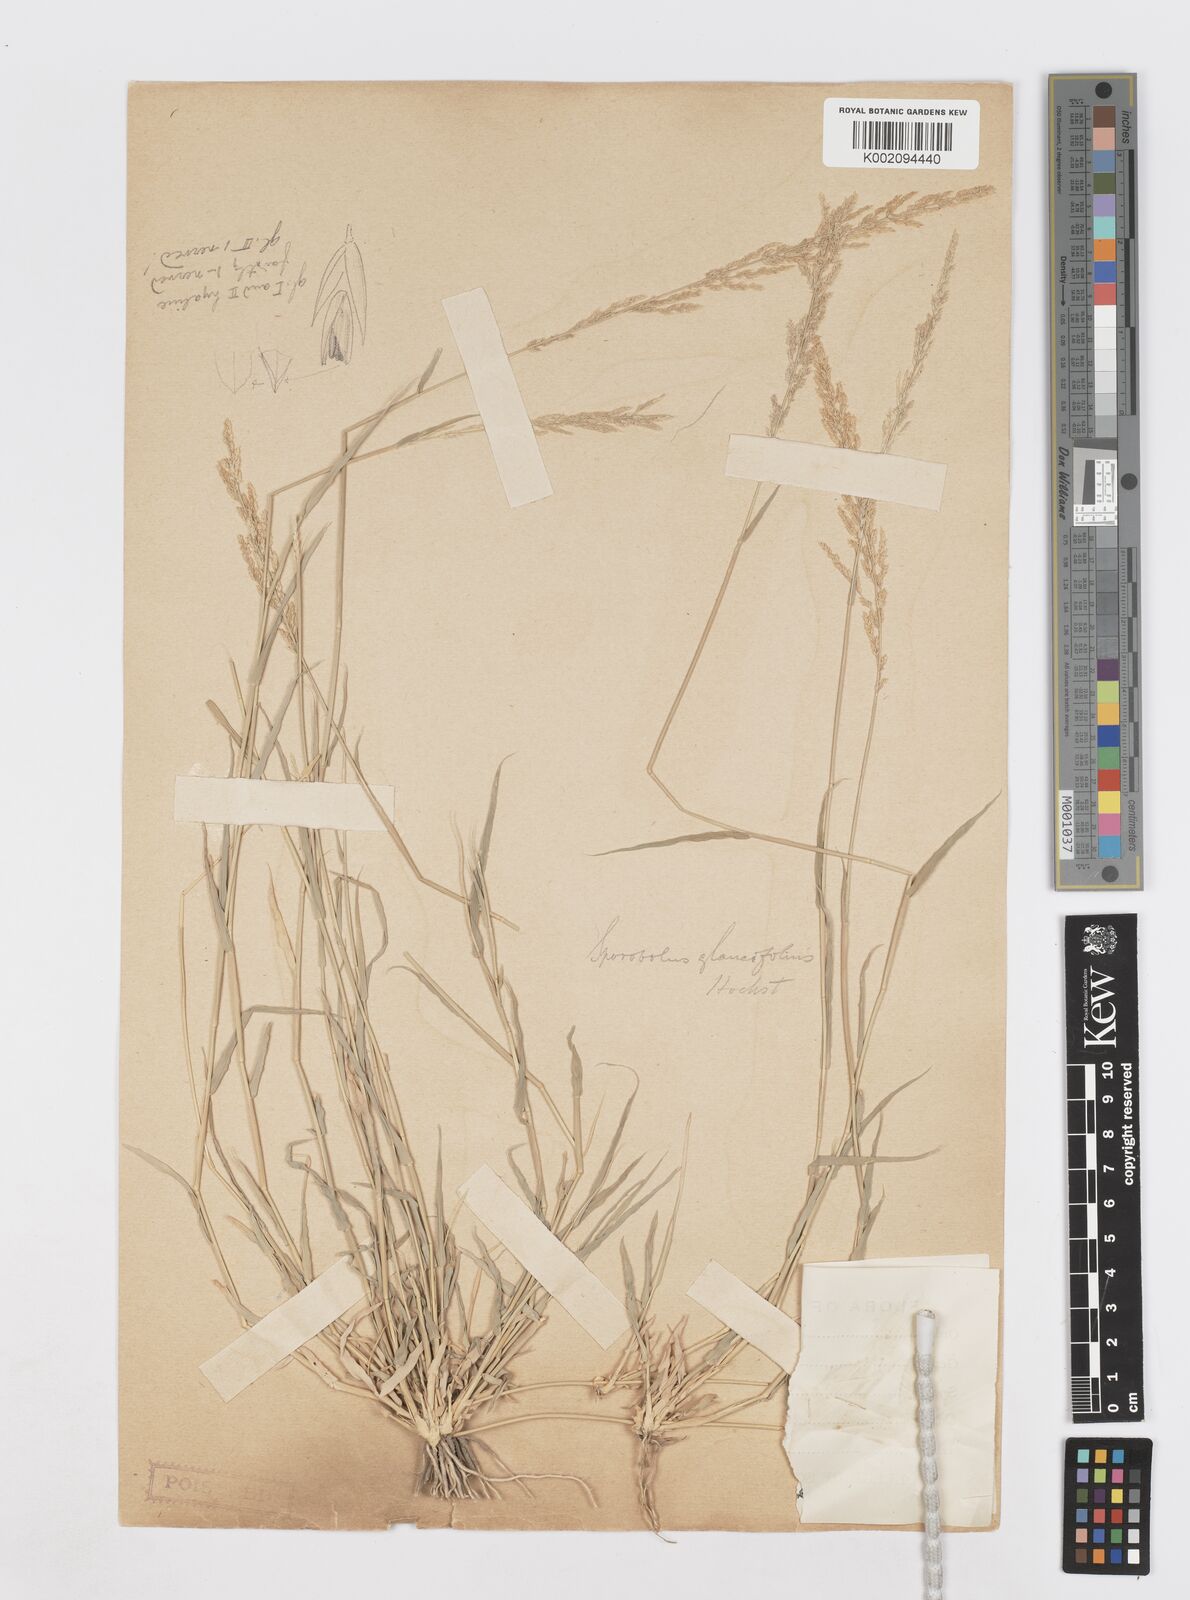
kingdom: Plantae
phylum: Tracheophyta
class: Liliopsida
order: Poales
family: Poaceae
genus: Sporobolus
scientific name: Sporobolus helvolus
